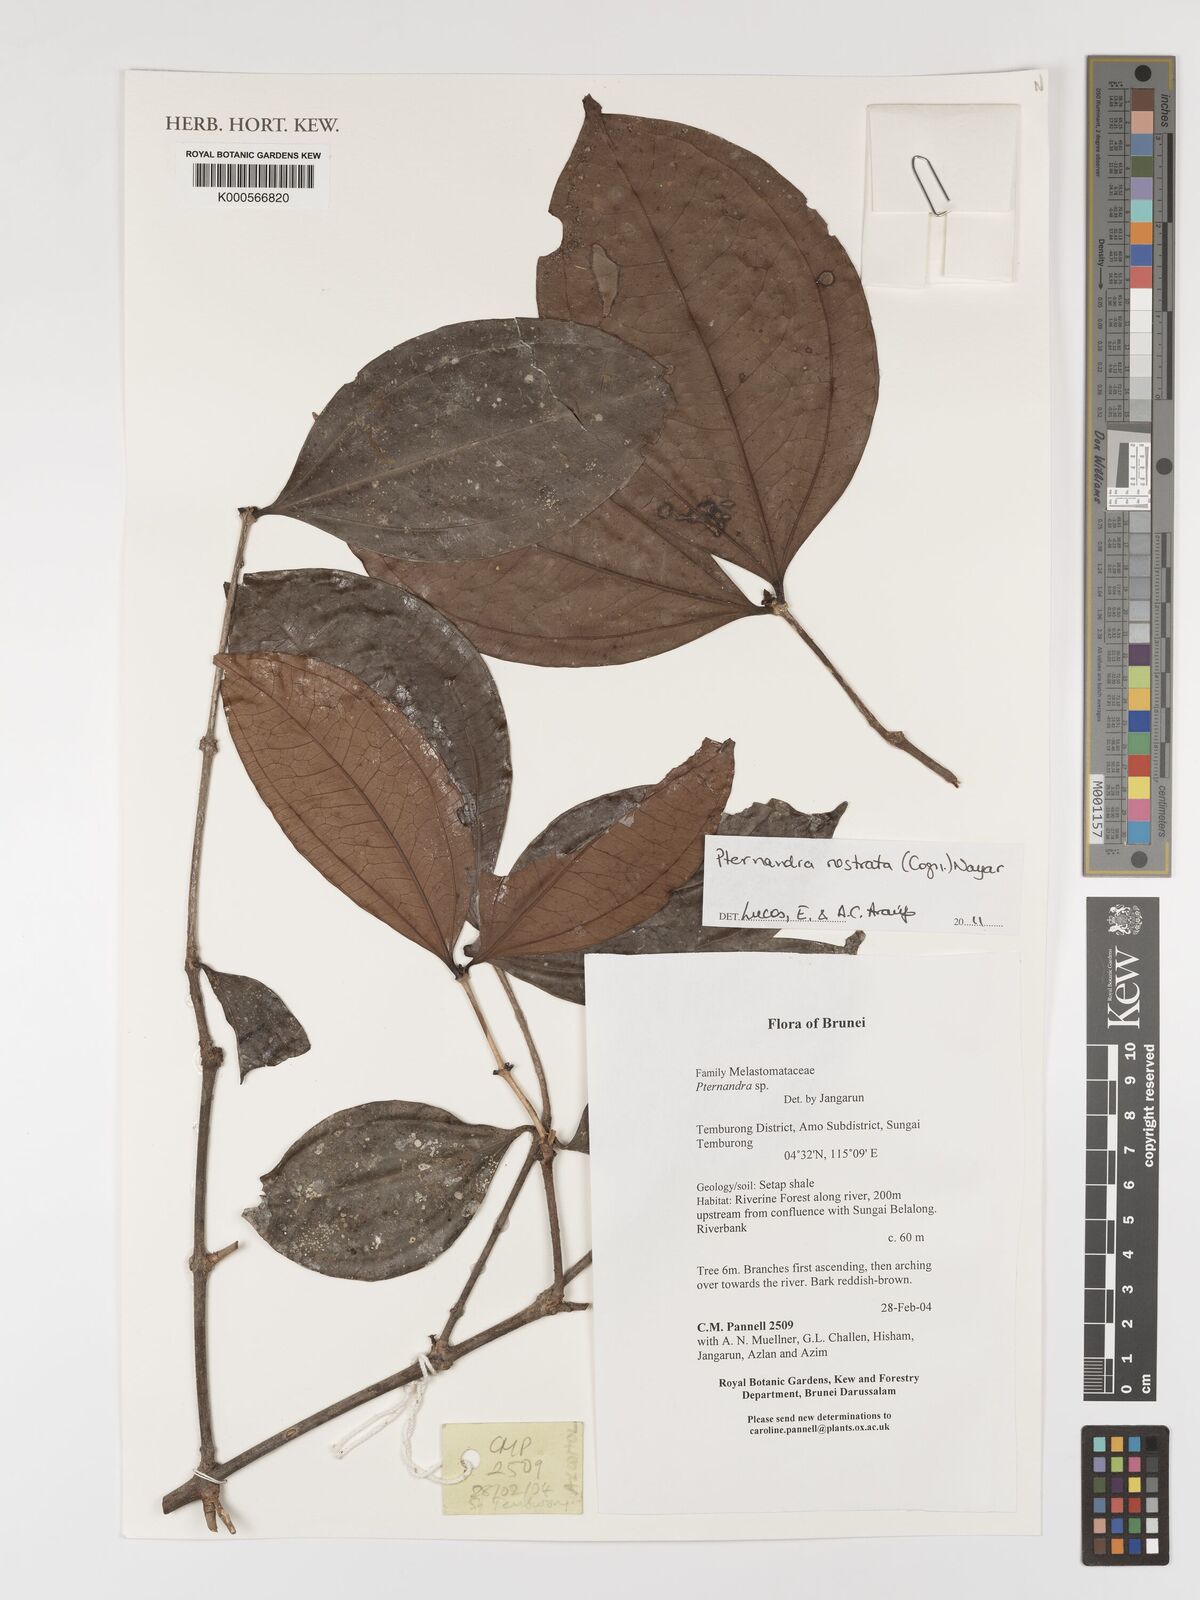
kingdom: Plantae
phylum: Tracheophyta
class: Magnoliopsida
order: Myrtales
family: Melastomataceae
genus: Pternandra
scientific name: Pternandra rostrata
